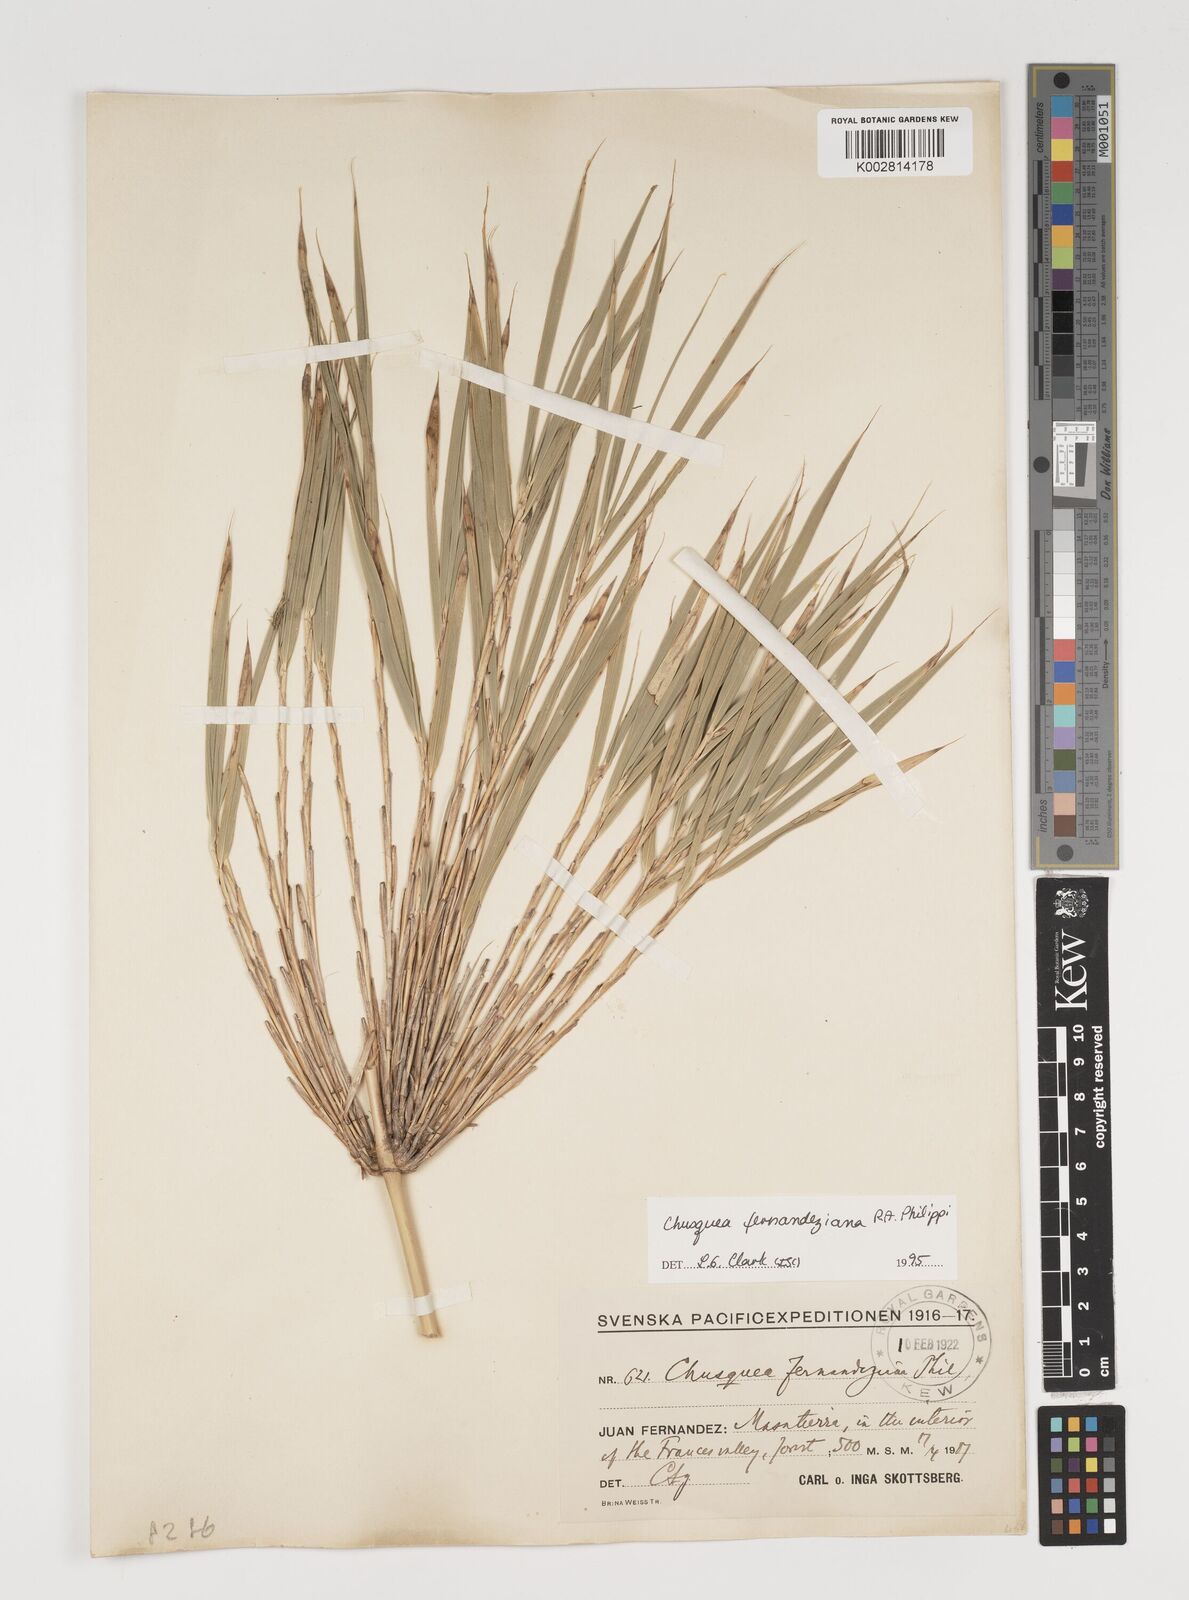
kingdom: Plantae
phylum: Tracheophyta
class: Liliopsida
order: Poales
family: Poaceae
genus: Chusquea
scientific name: Chusquea ligulata
